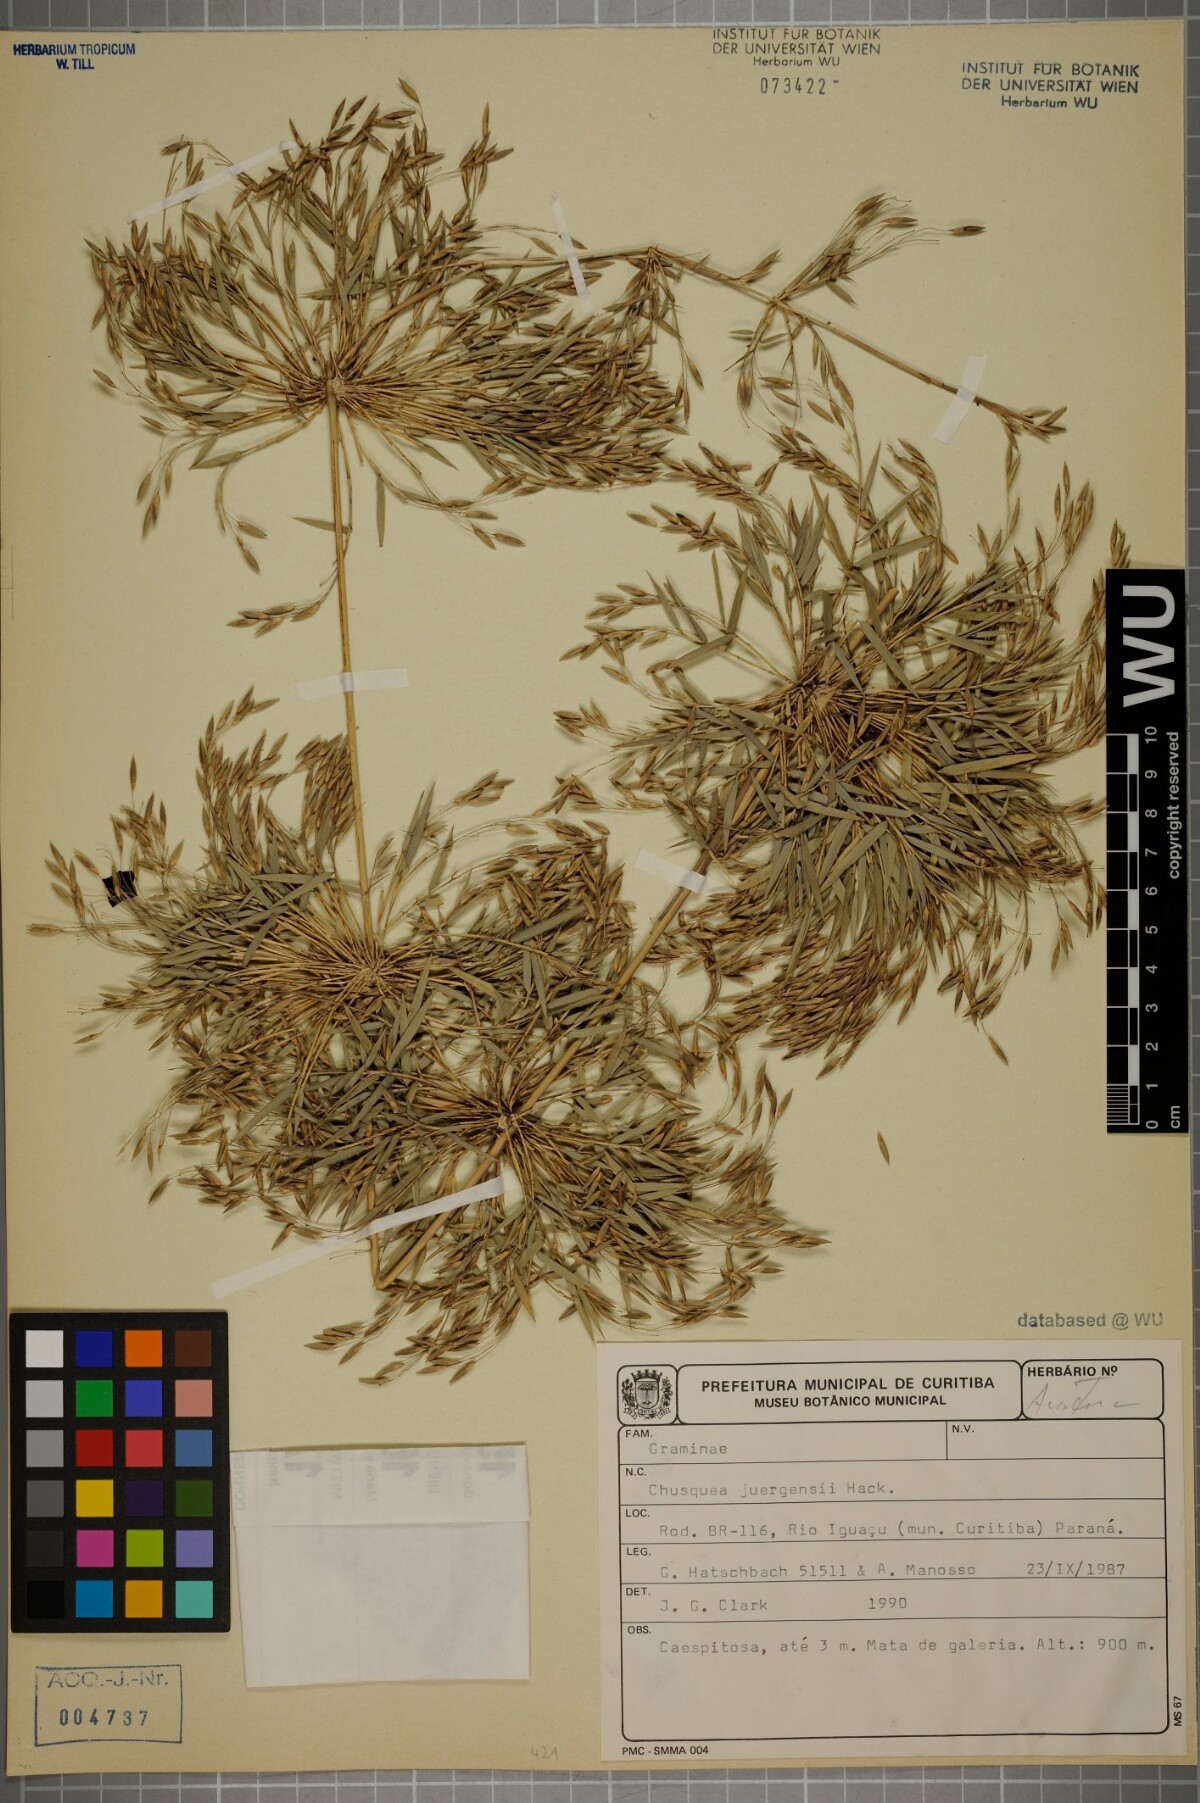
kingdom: Plantae
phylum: Tracheophyta
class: Liliopsida
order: Poales
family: Poaceae
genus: Chusquea
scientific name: Chusquea juergensii
